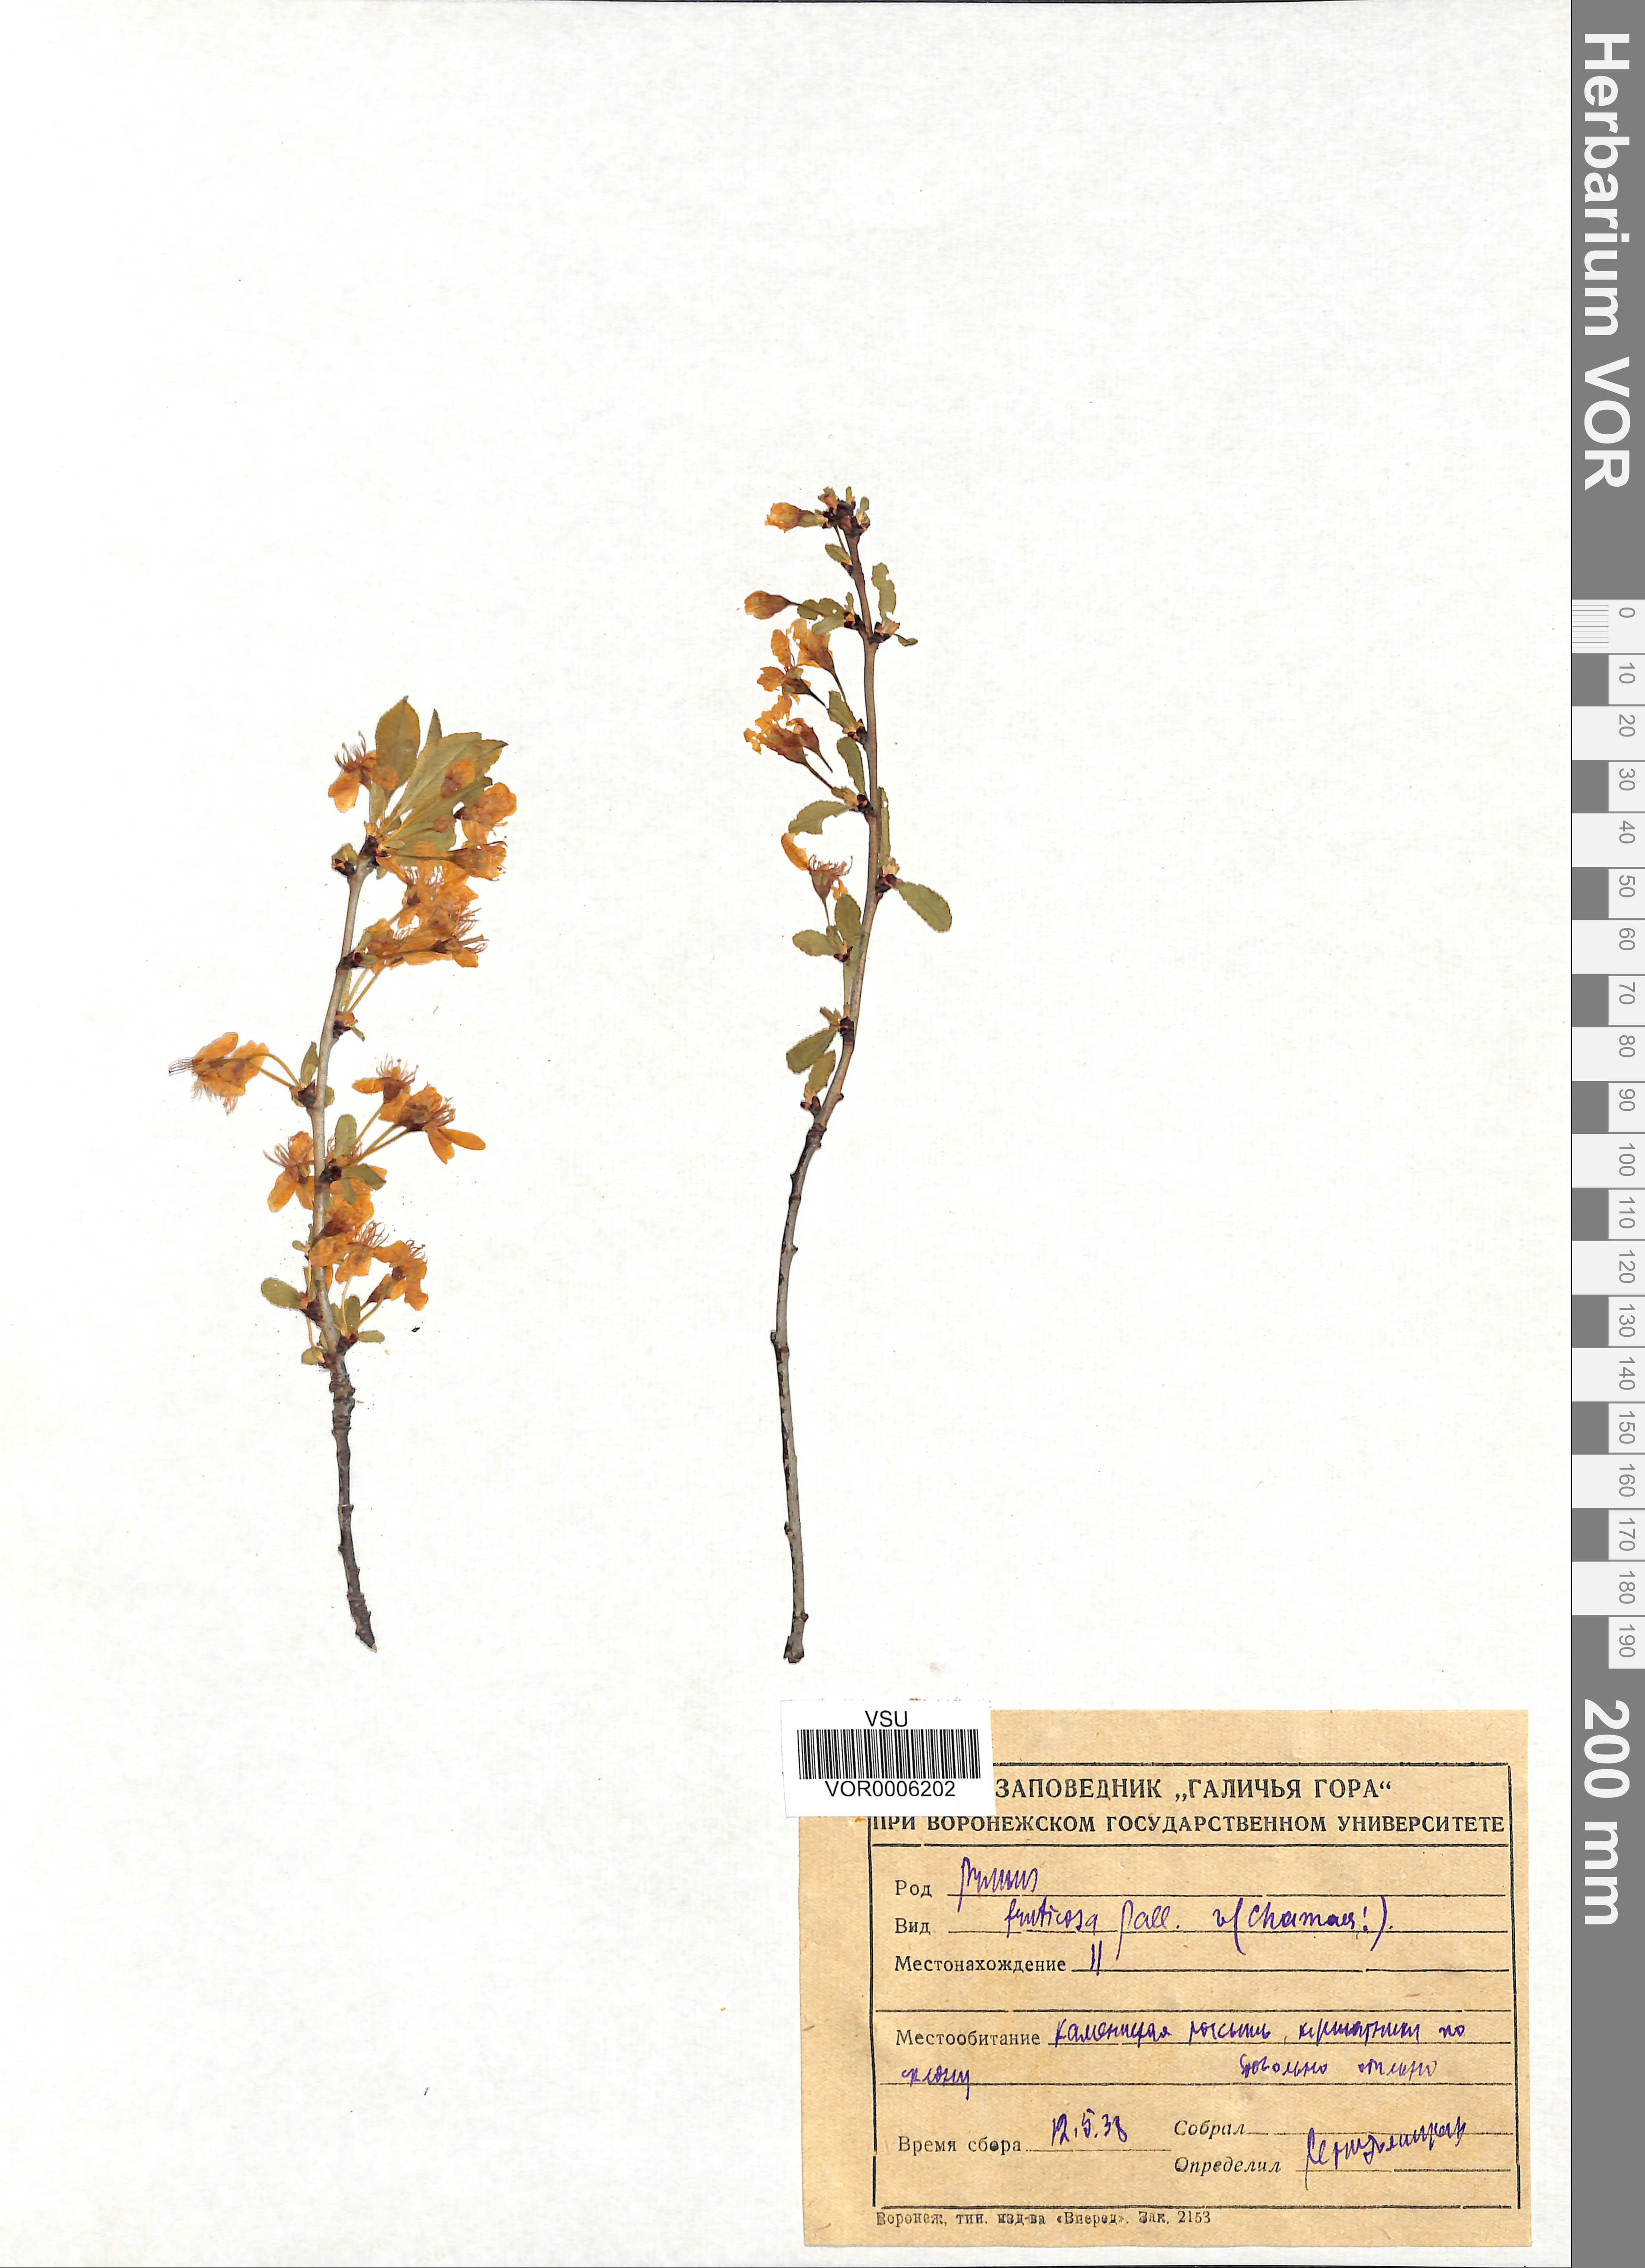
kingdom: Plantae
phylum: Tracheophyta
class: Magnoliopsida
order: Rosales
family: Rosaceae
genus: Prunus
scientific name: Prunus fruticosa
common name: European dwarf cherry
